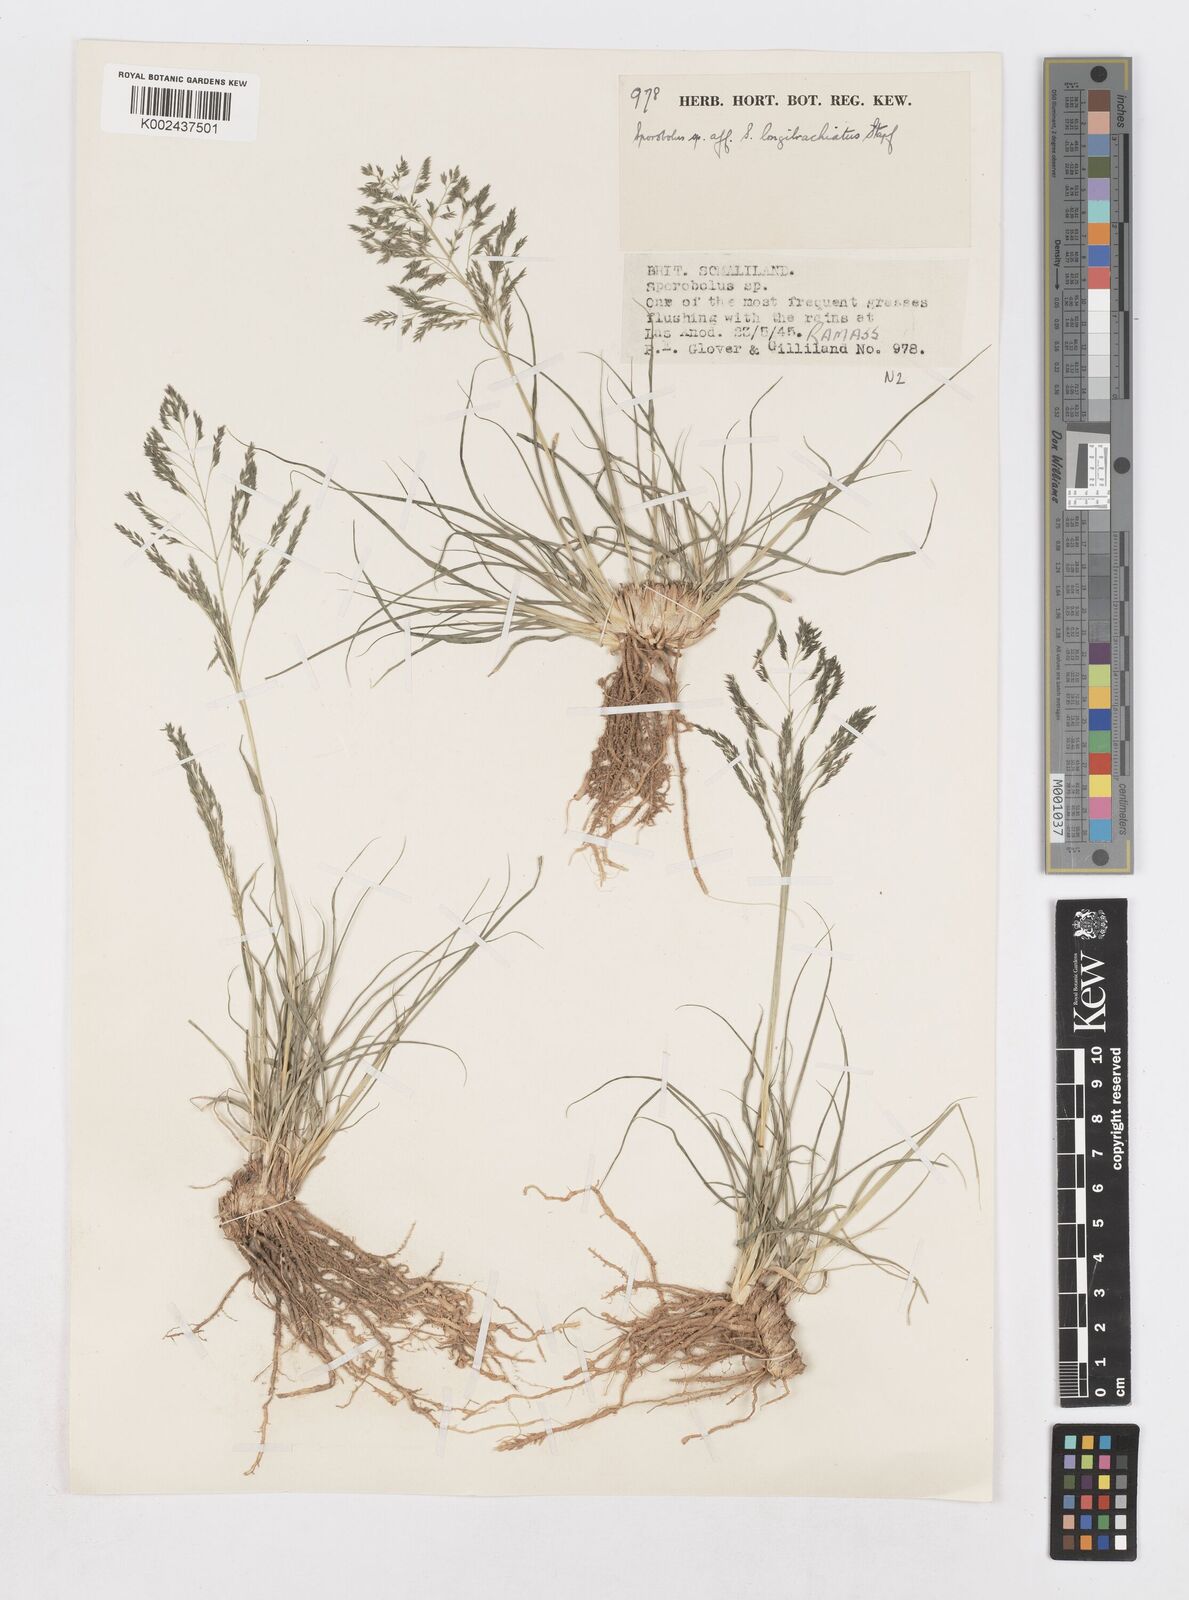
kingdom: Plantae
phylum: Tracheophyta
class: Liliopsida
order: Poales
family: Poaceae
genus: Sporobolus
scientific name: Sporobolus nervosus
